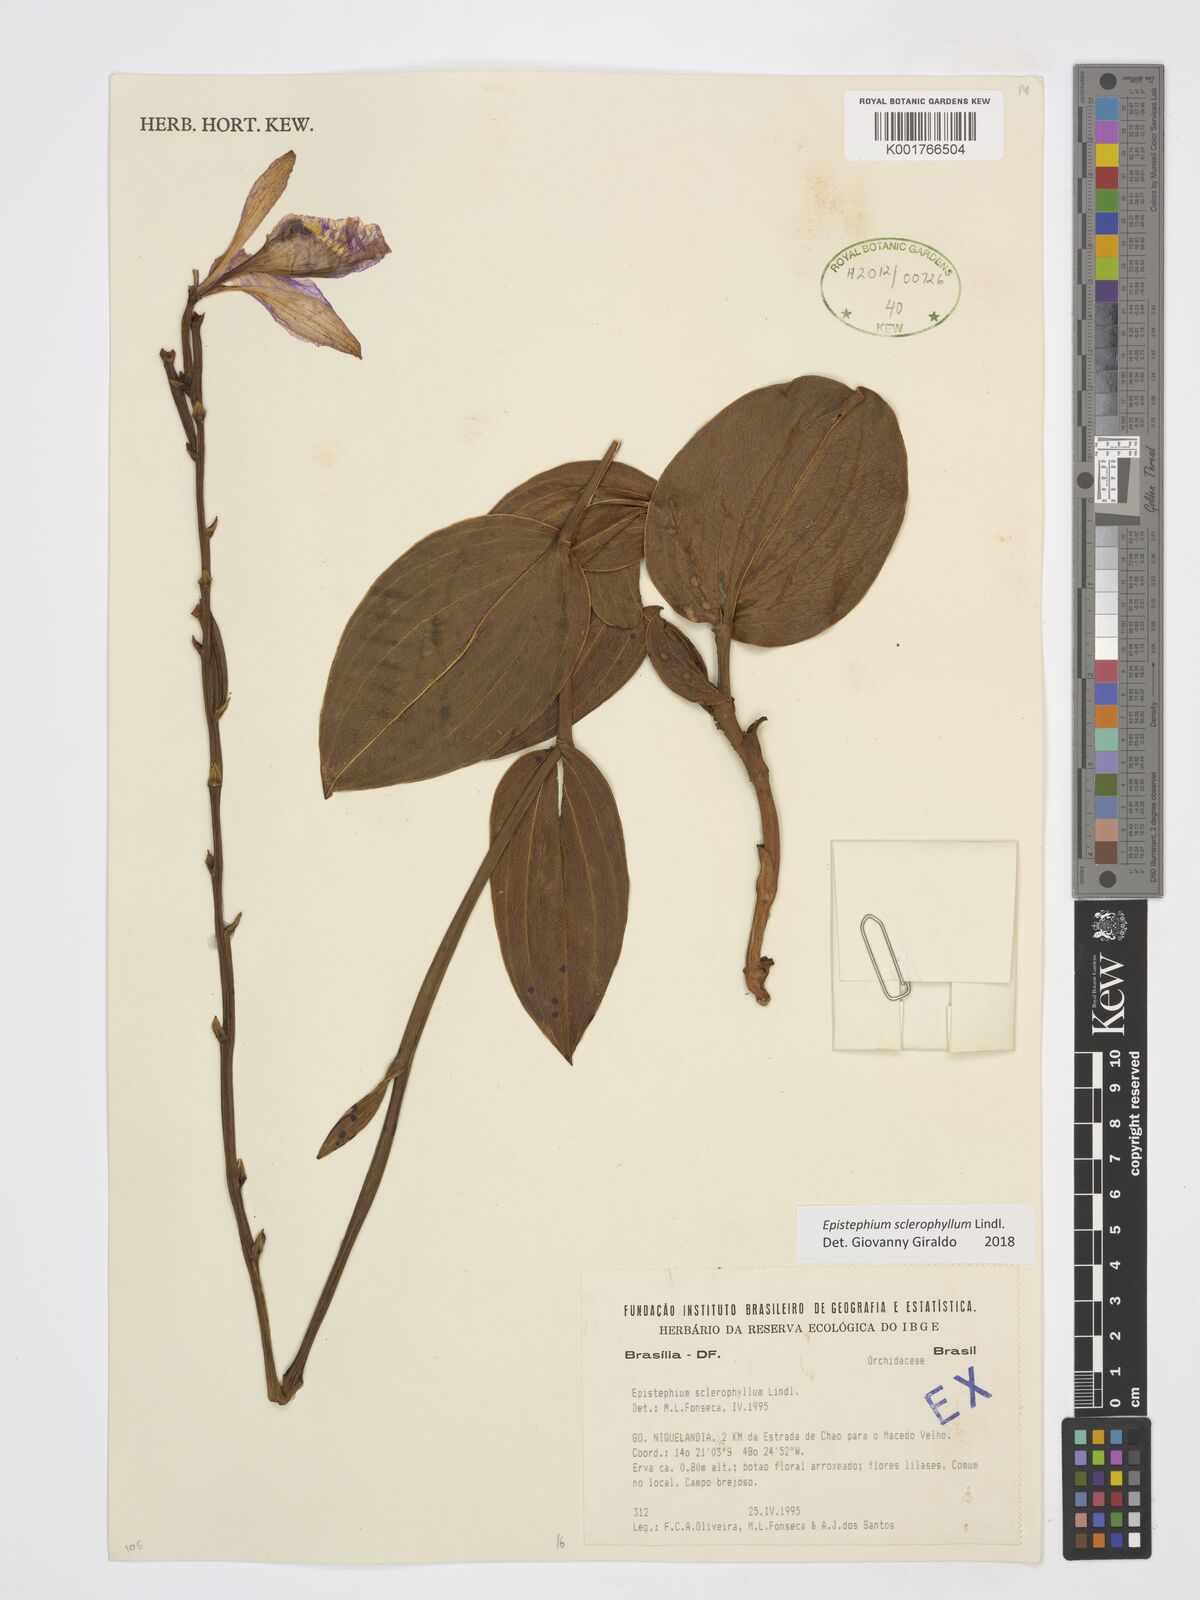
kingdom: Plantae
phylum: Tracheophyta
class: Liliopsida
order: Asparagales
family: Orchidaceae
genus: Epistephium
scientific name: Epistephium sclerophyllum
